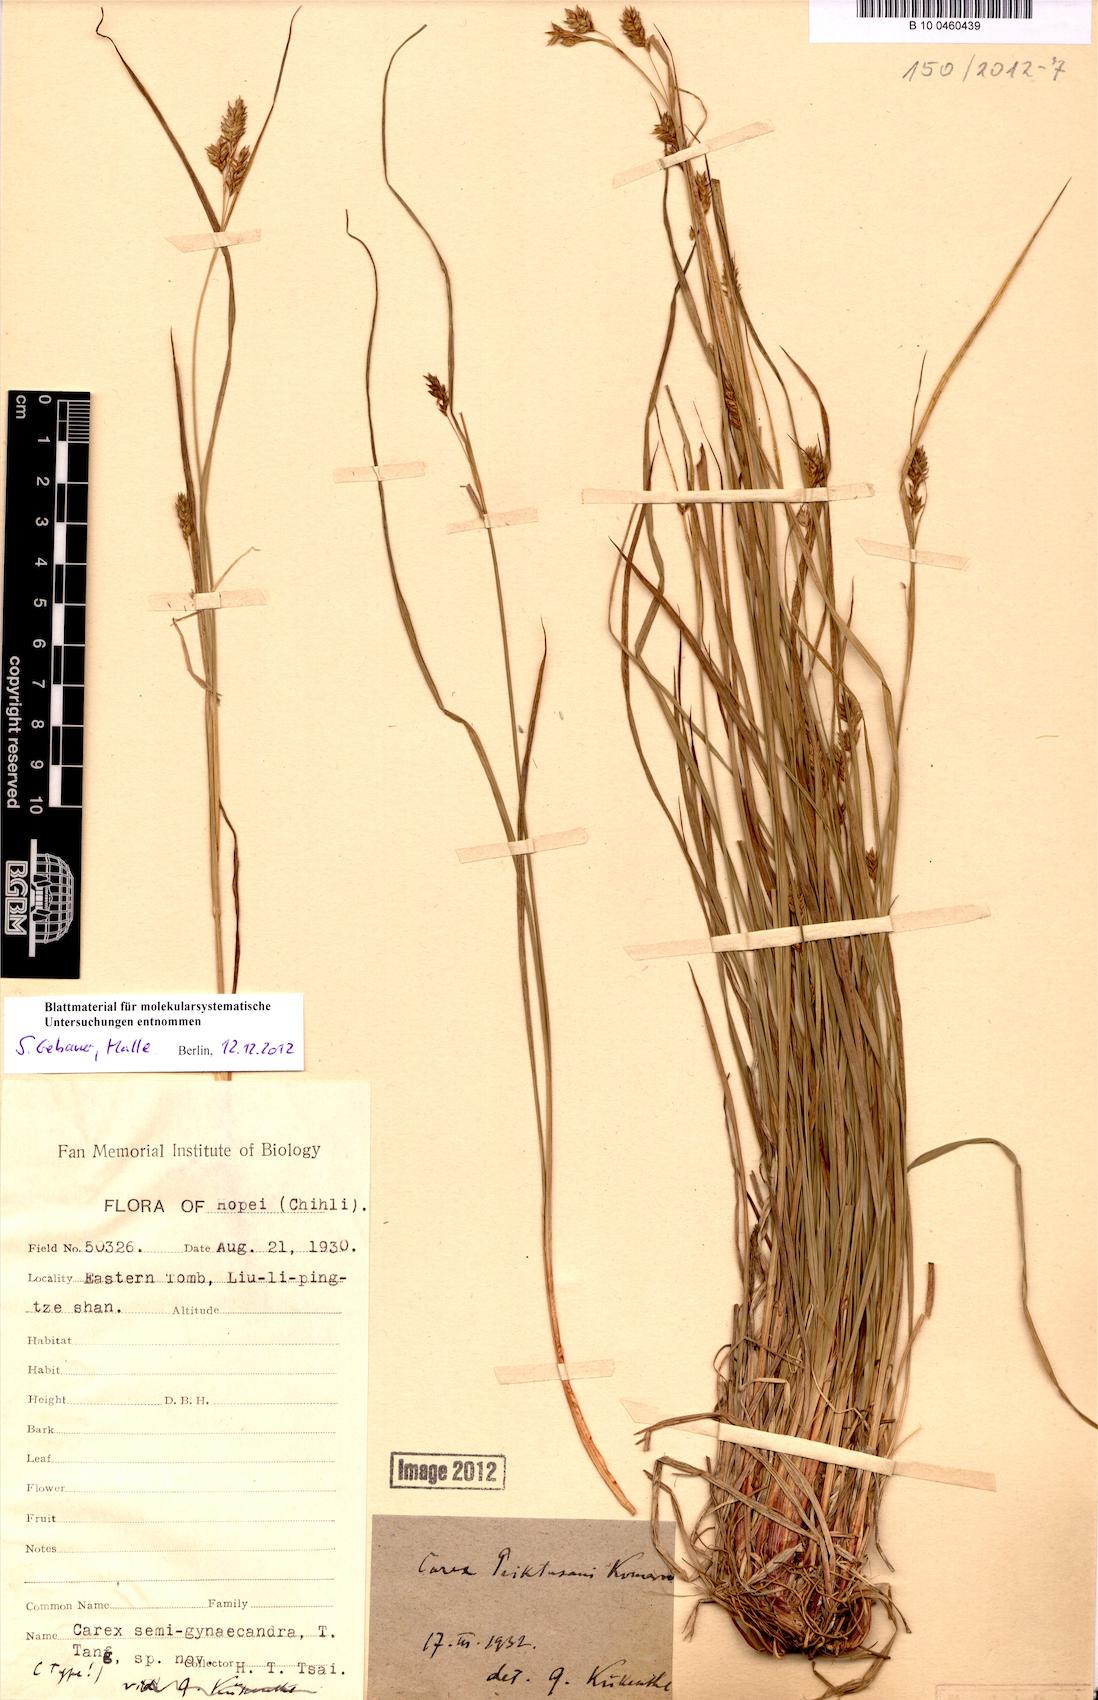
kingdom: Plantae
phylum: Tracheophyta
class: Liliopsida
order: Poales
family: Cyperaceae
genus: Carex
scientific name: Carex peiktusani
